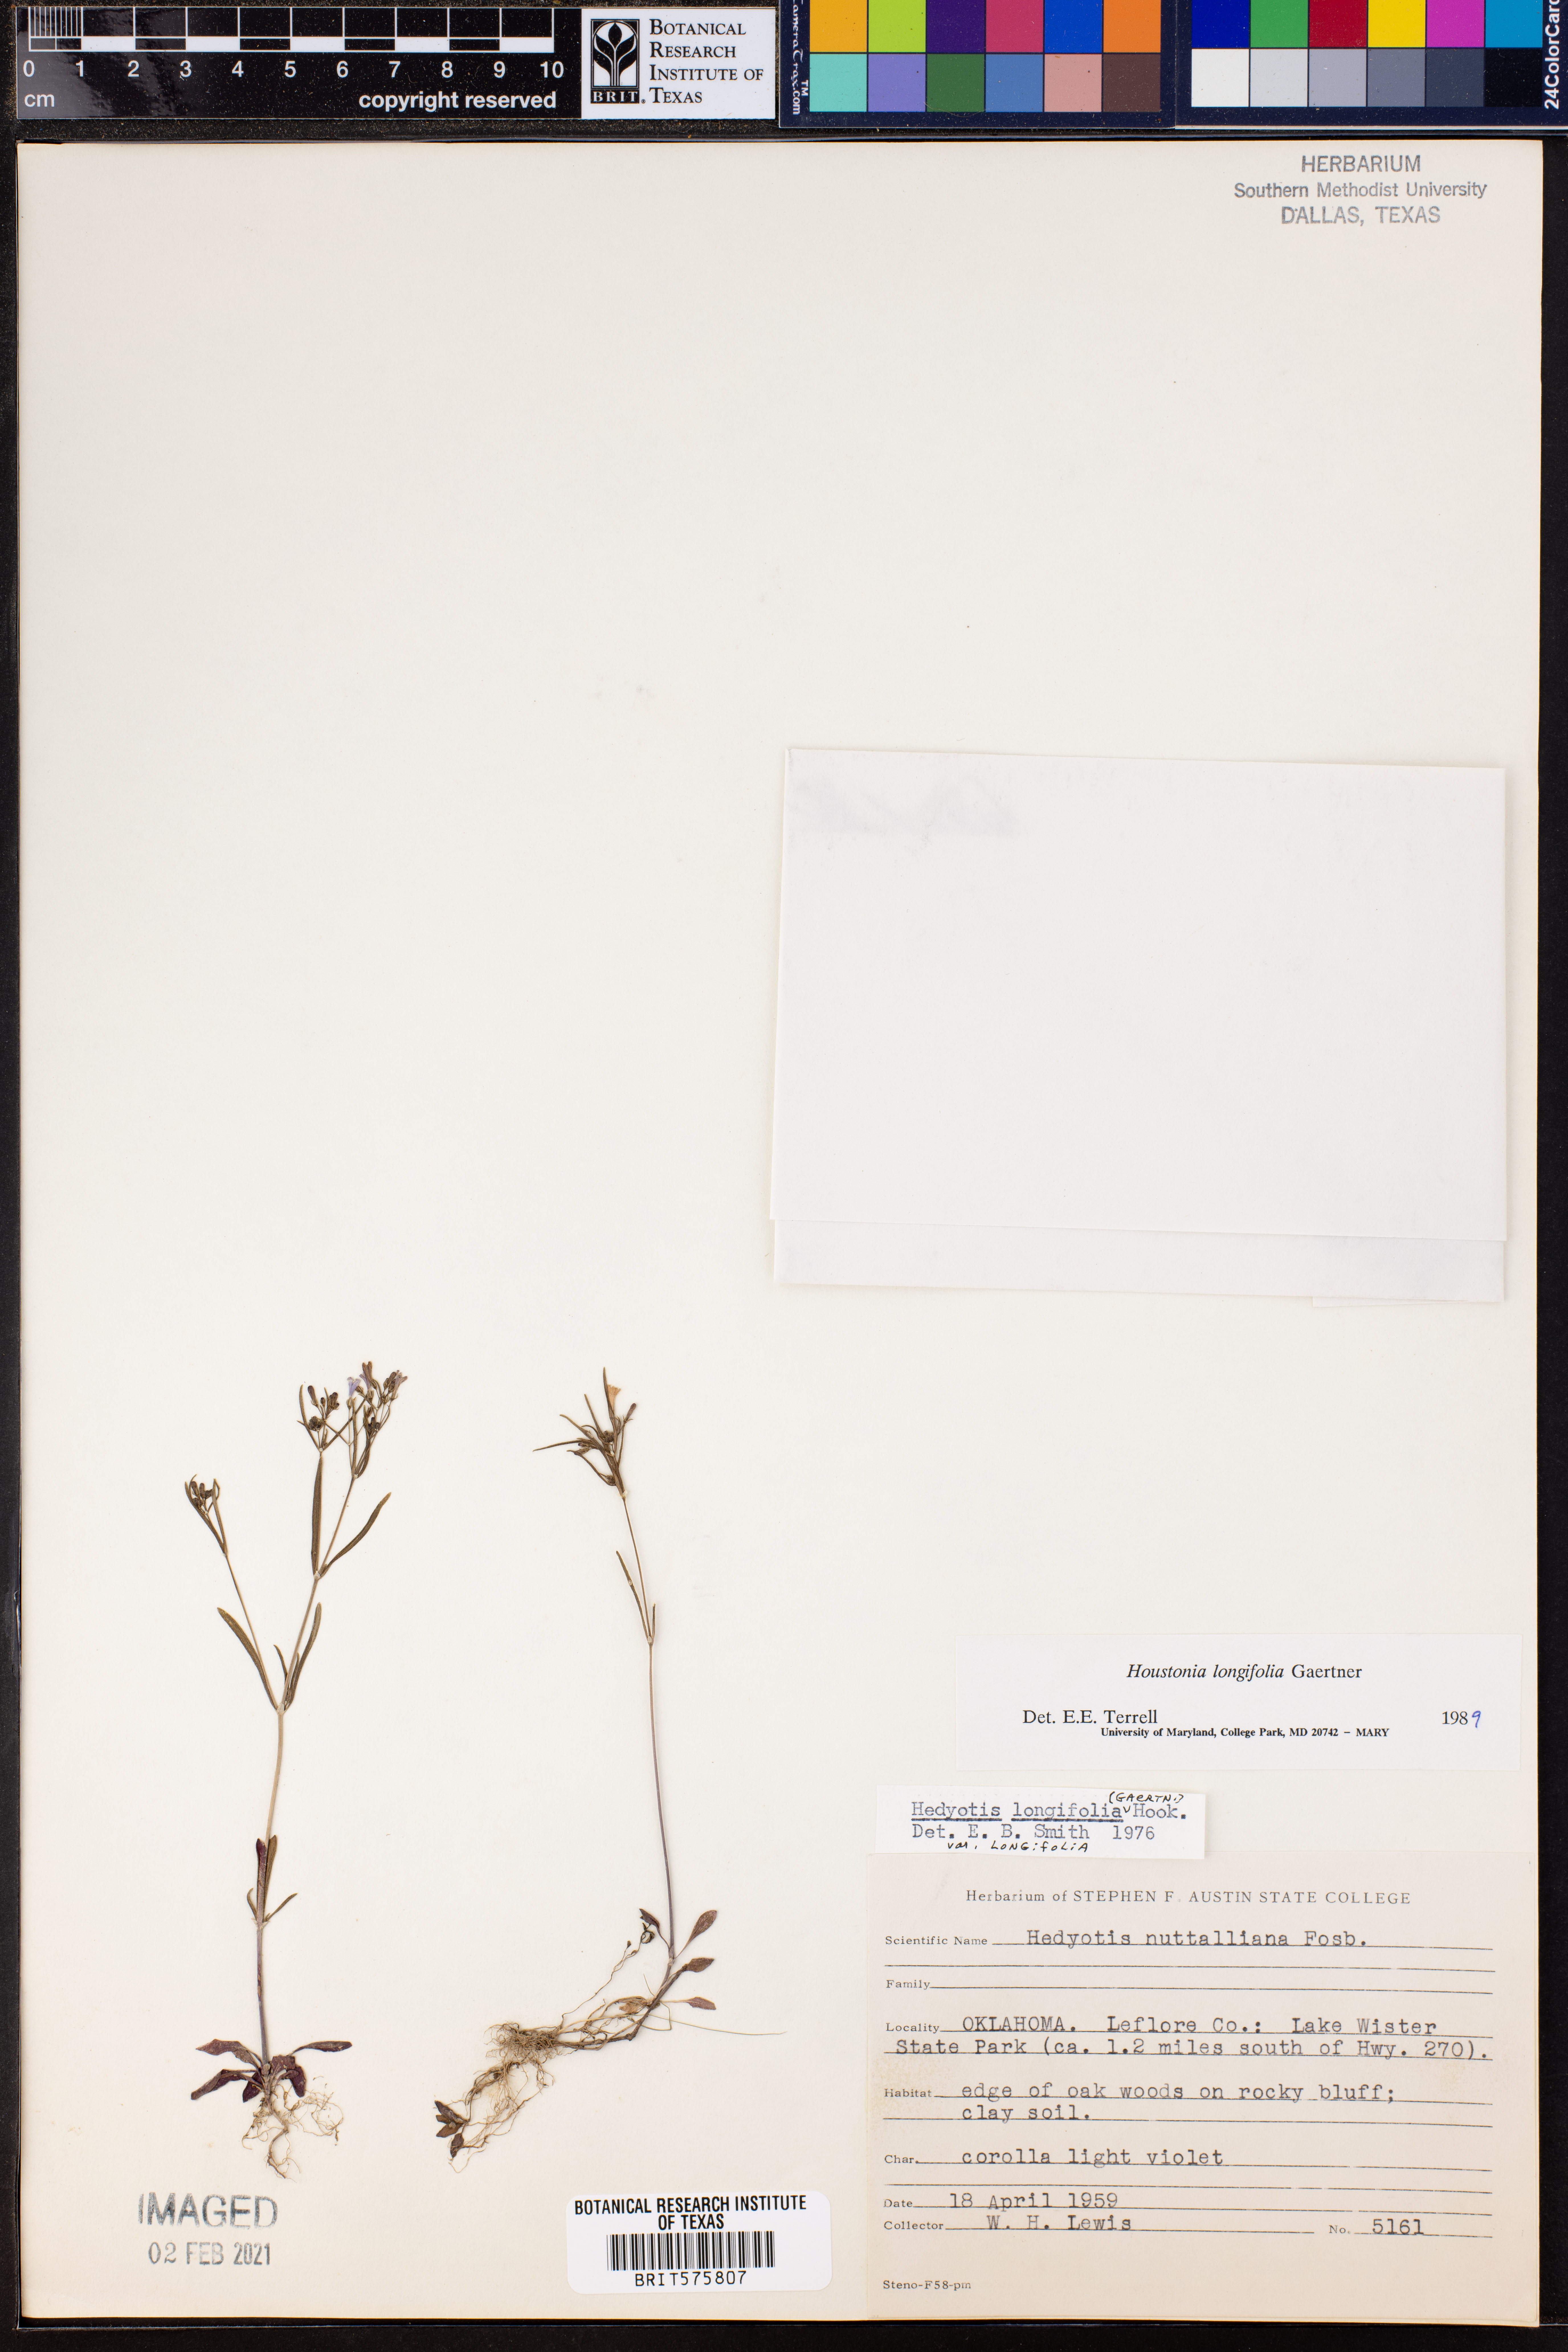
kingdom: Plantae
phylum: Tracheophyta
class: Magnoliopsida
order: Gentianales
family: Rubiaceae
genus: Houstonia
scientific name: Houstonia longifolia
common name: Long-leaved bluets
